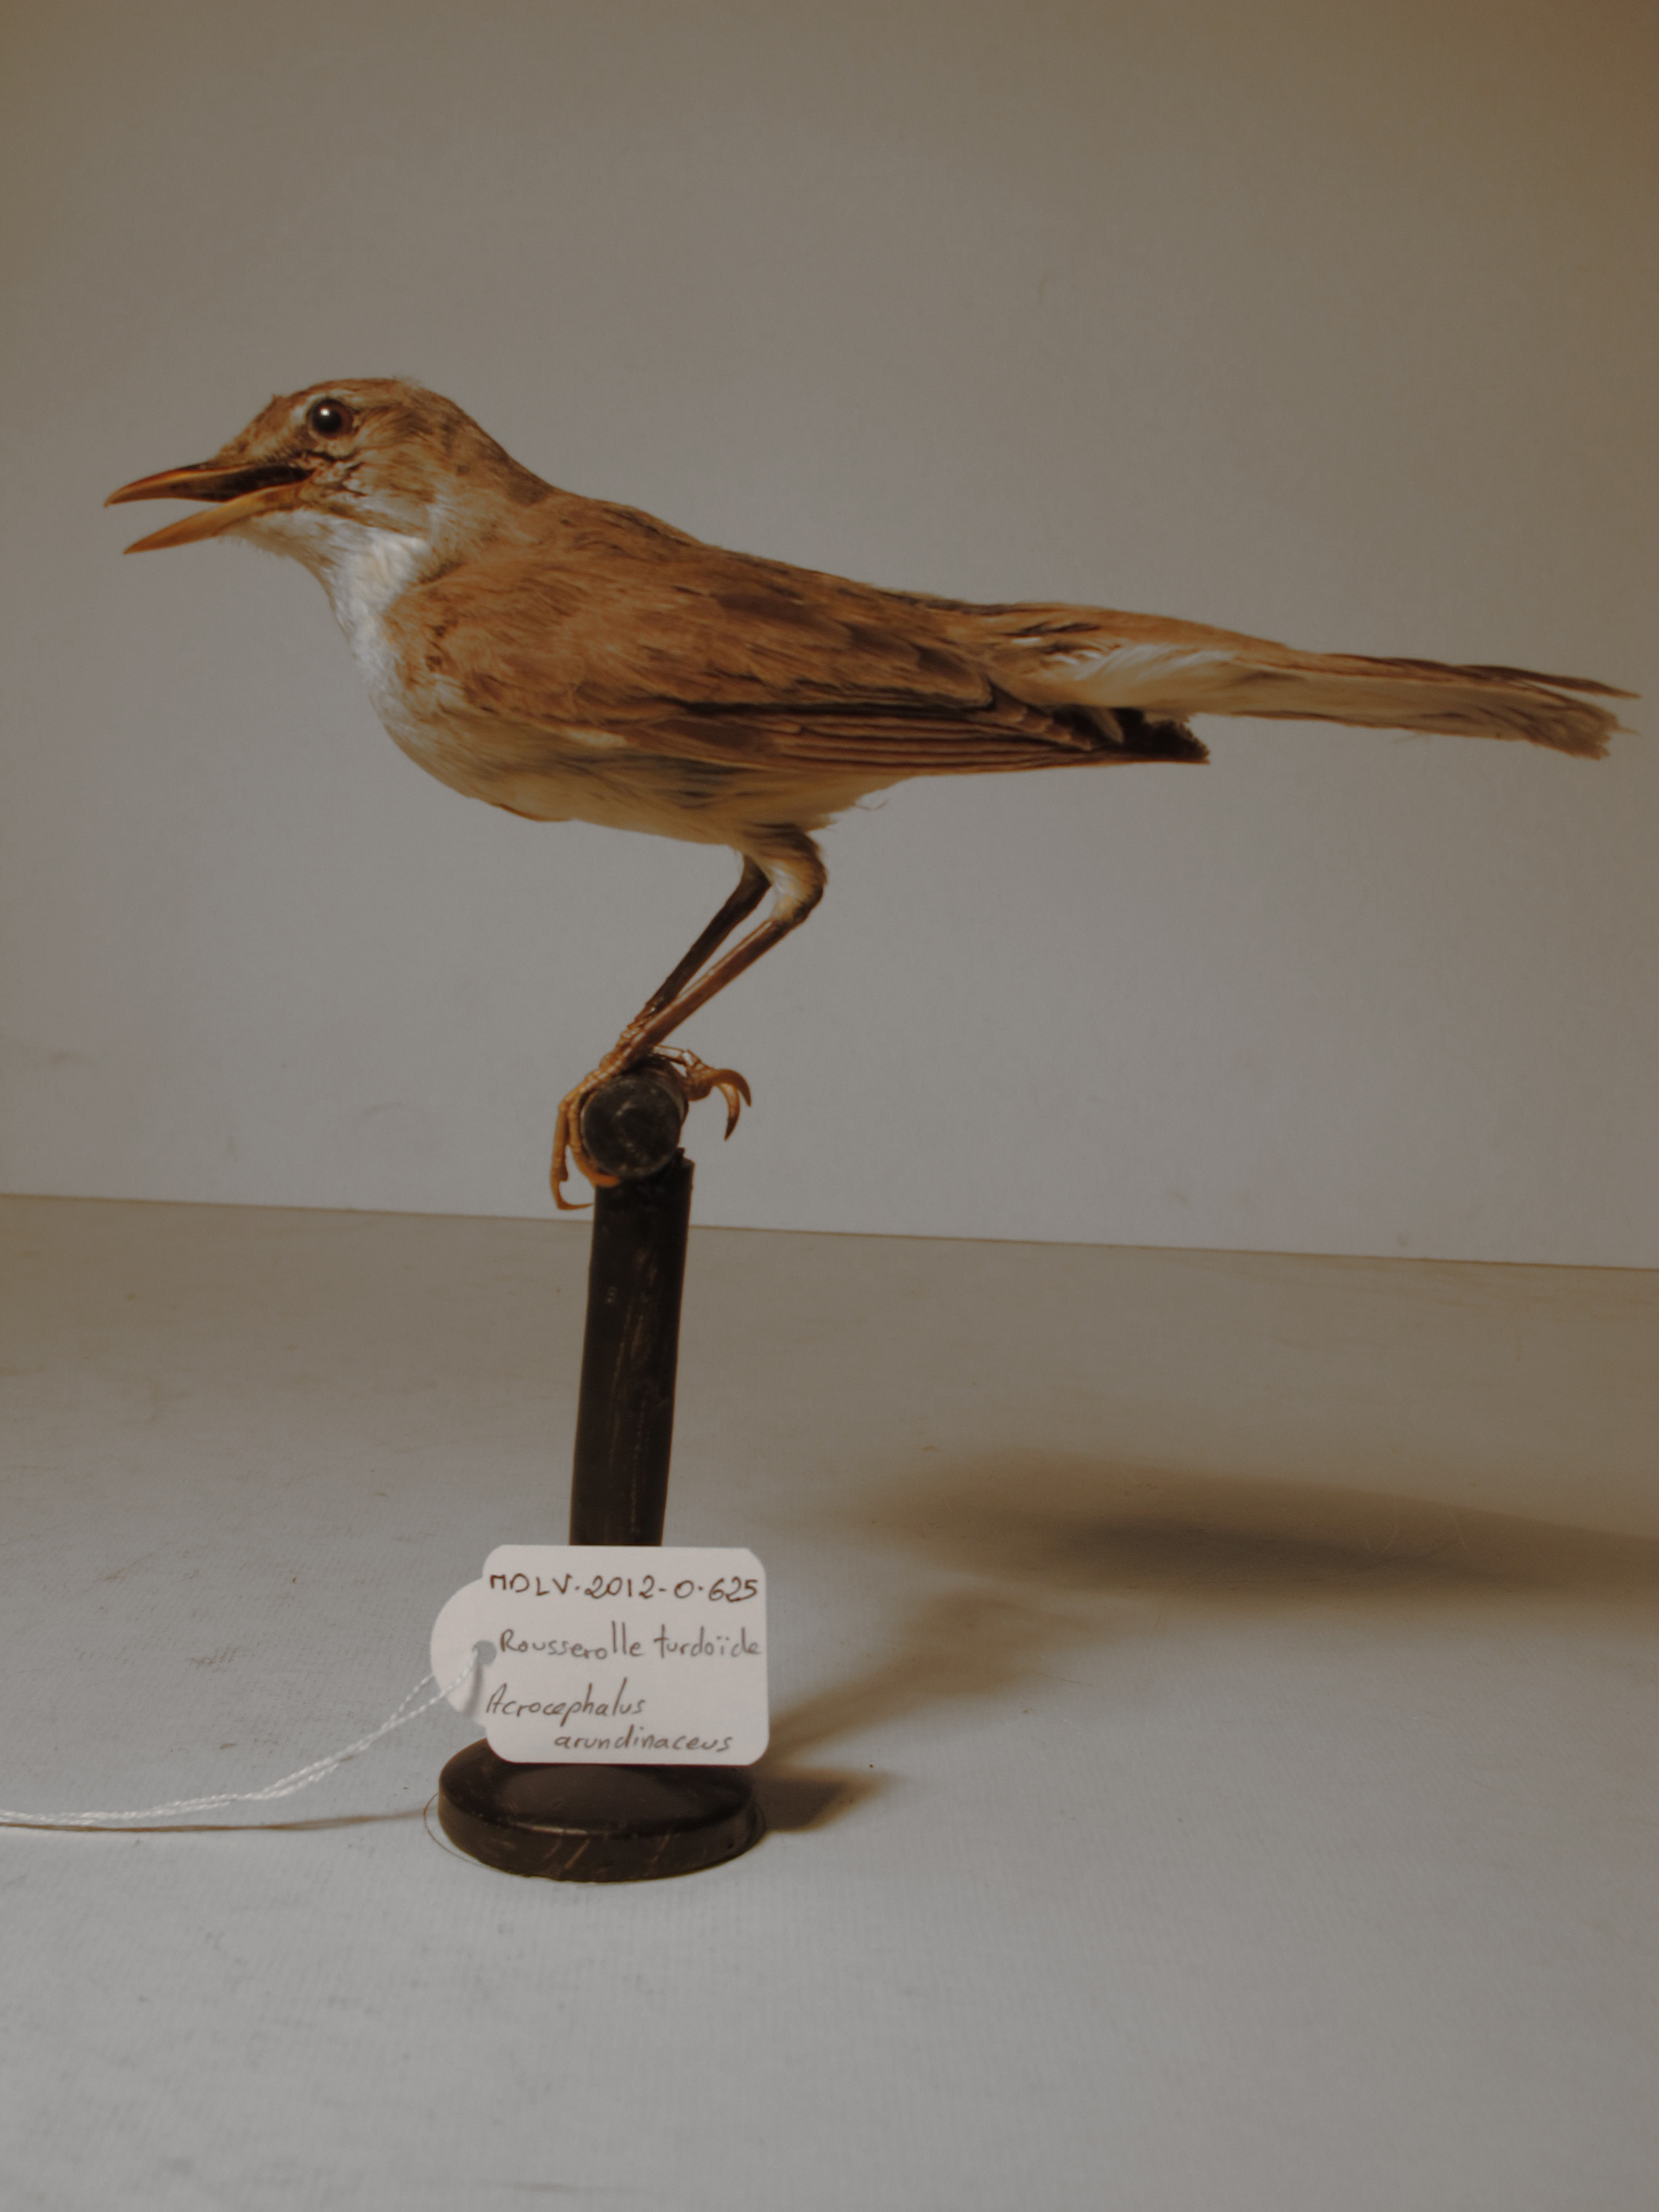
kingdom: Animalia
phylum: Chordata
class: Aves
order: Passeriformes
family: Acrocephalidae
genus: Acrocephalus
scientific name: Acrocephalus arundinaceus
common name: Great Reed-warbler
